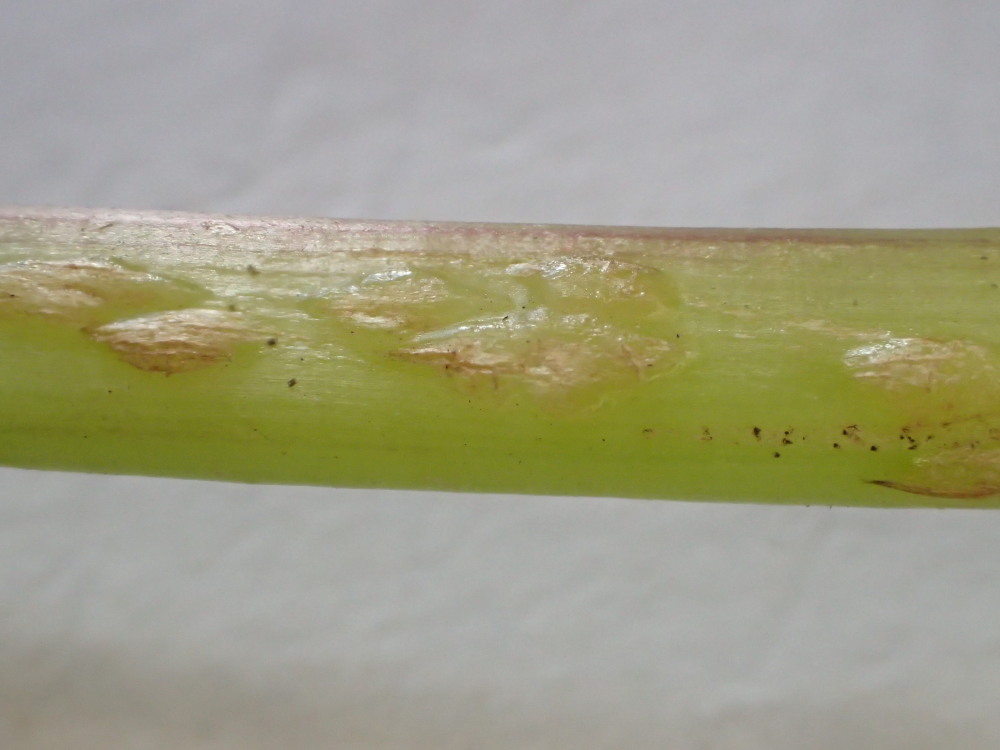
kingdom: Fungi
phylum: Ascomycota
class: Taphrinomycetes
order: Taphrinales
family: Taphrinaceae
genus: Protomyces
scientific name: Protomyces macrosporus
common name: skvalderkål-vablesæk
